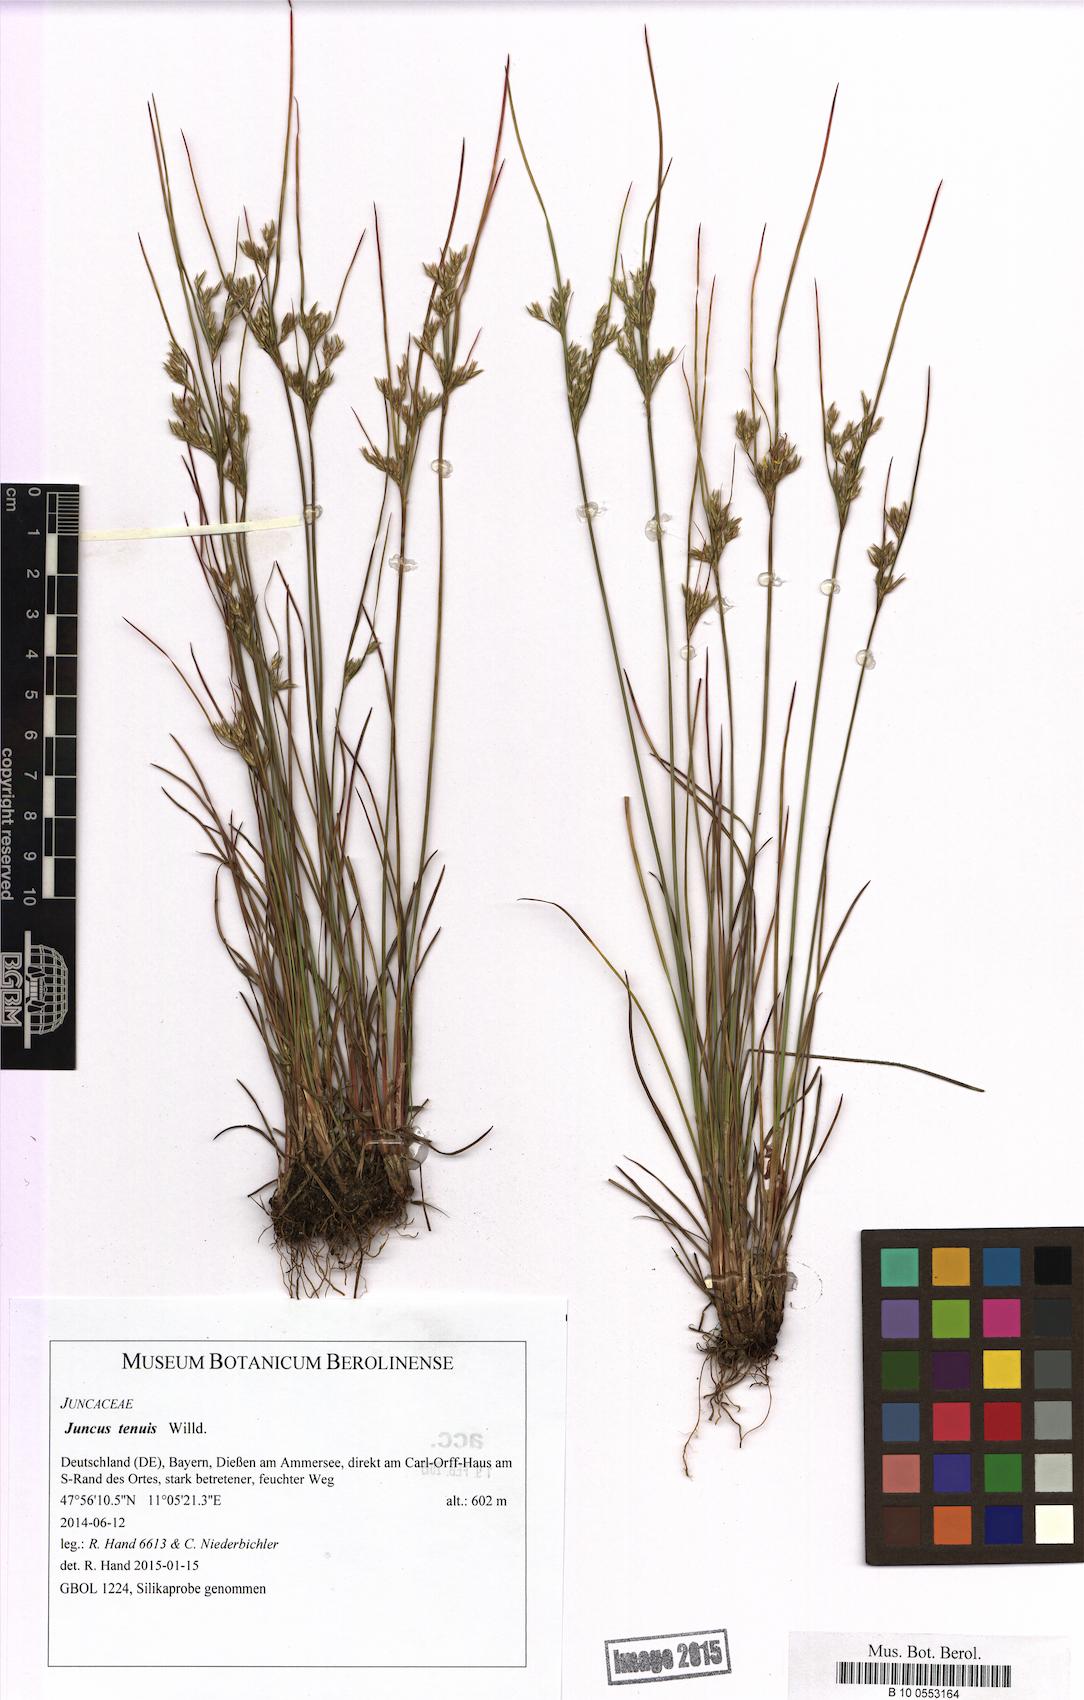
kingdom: Plantae
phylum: Tracheophyta
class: Liliopsida
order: Poales
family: Juncaceae
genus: Juncus
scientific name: Juncus tenuis
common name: Slender rush
